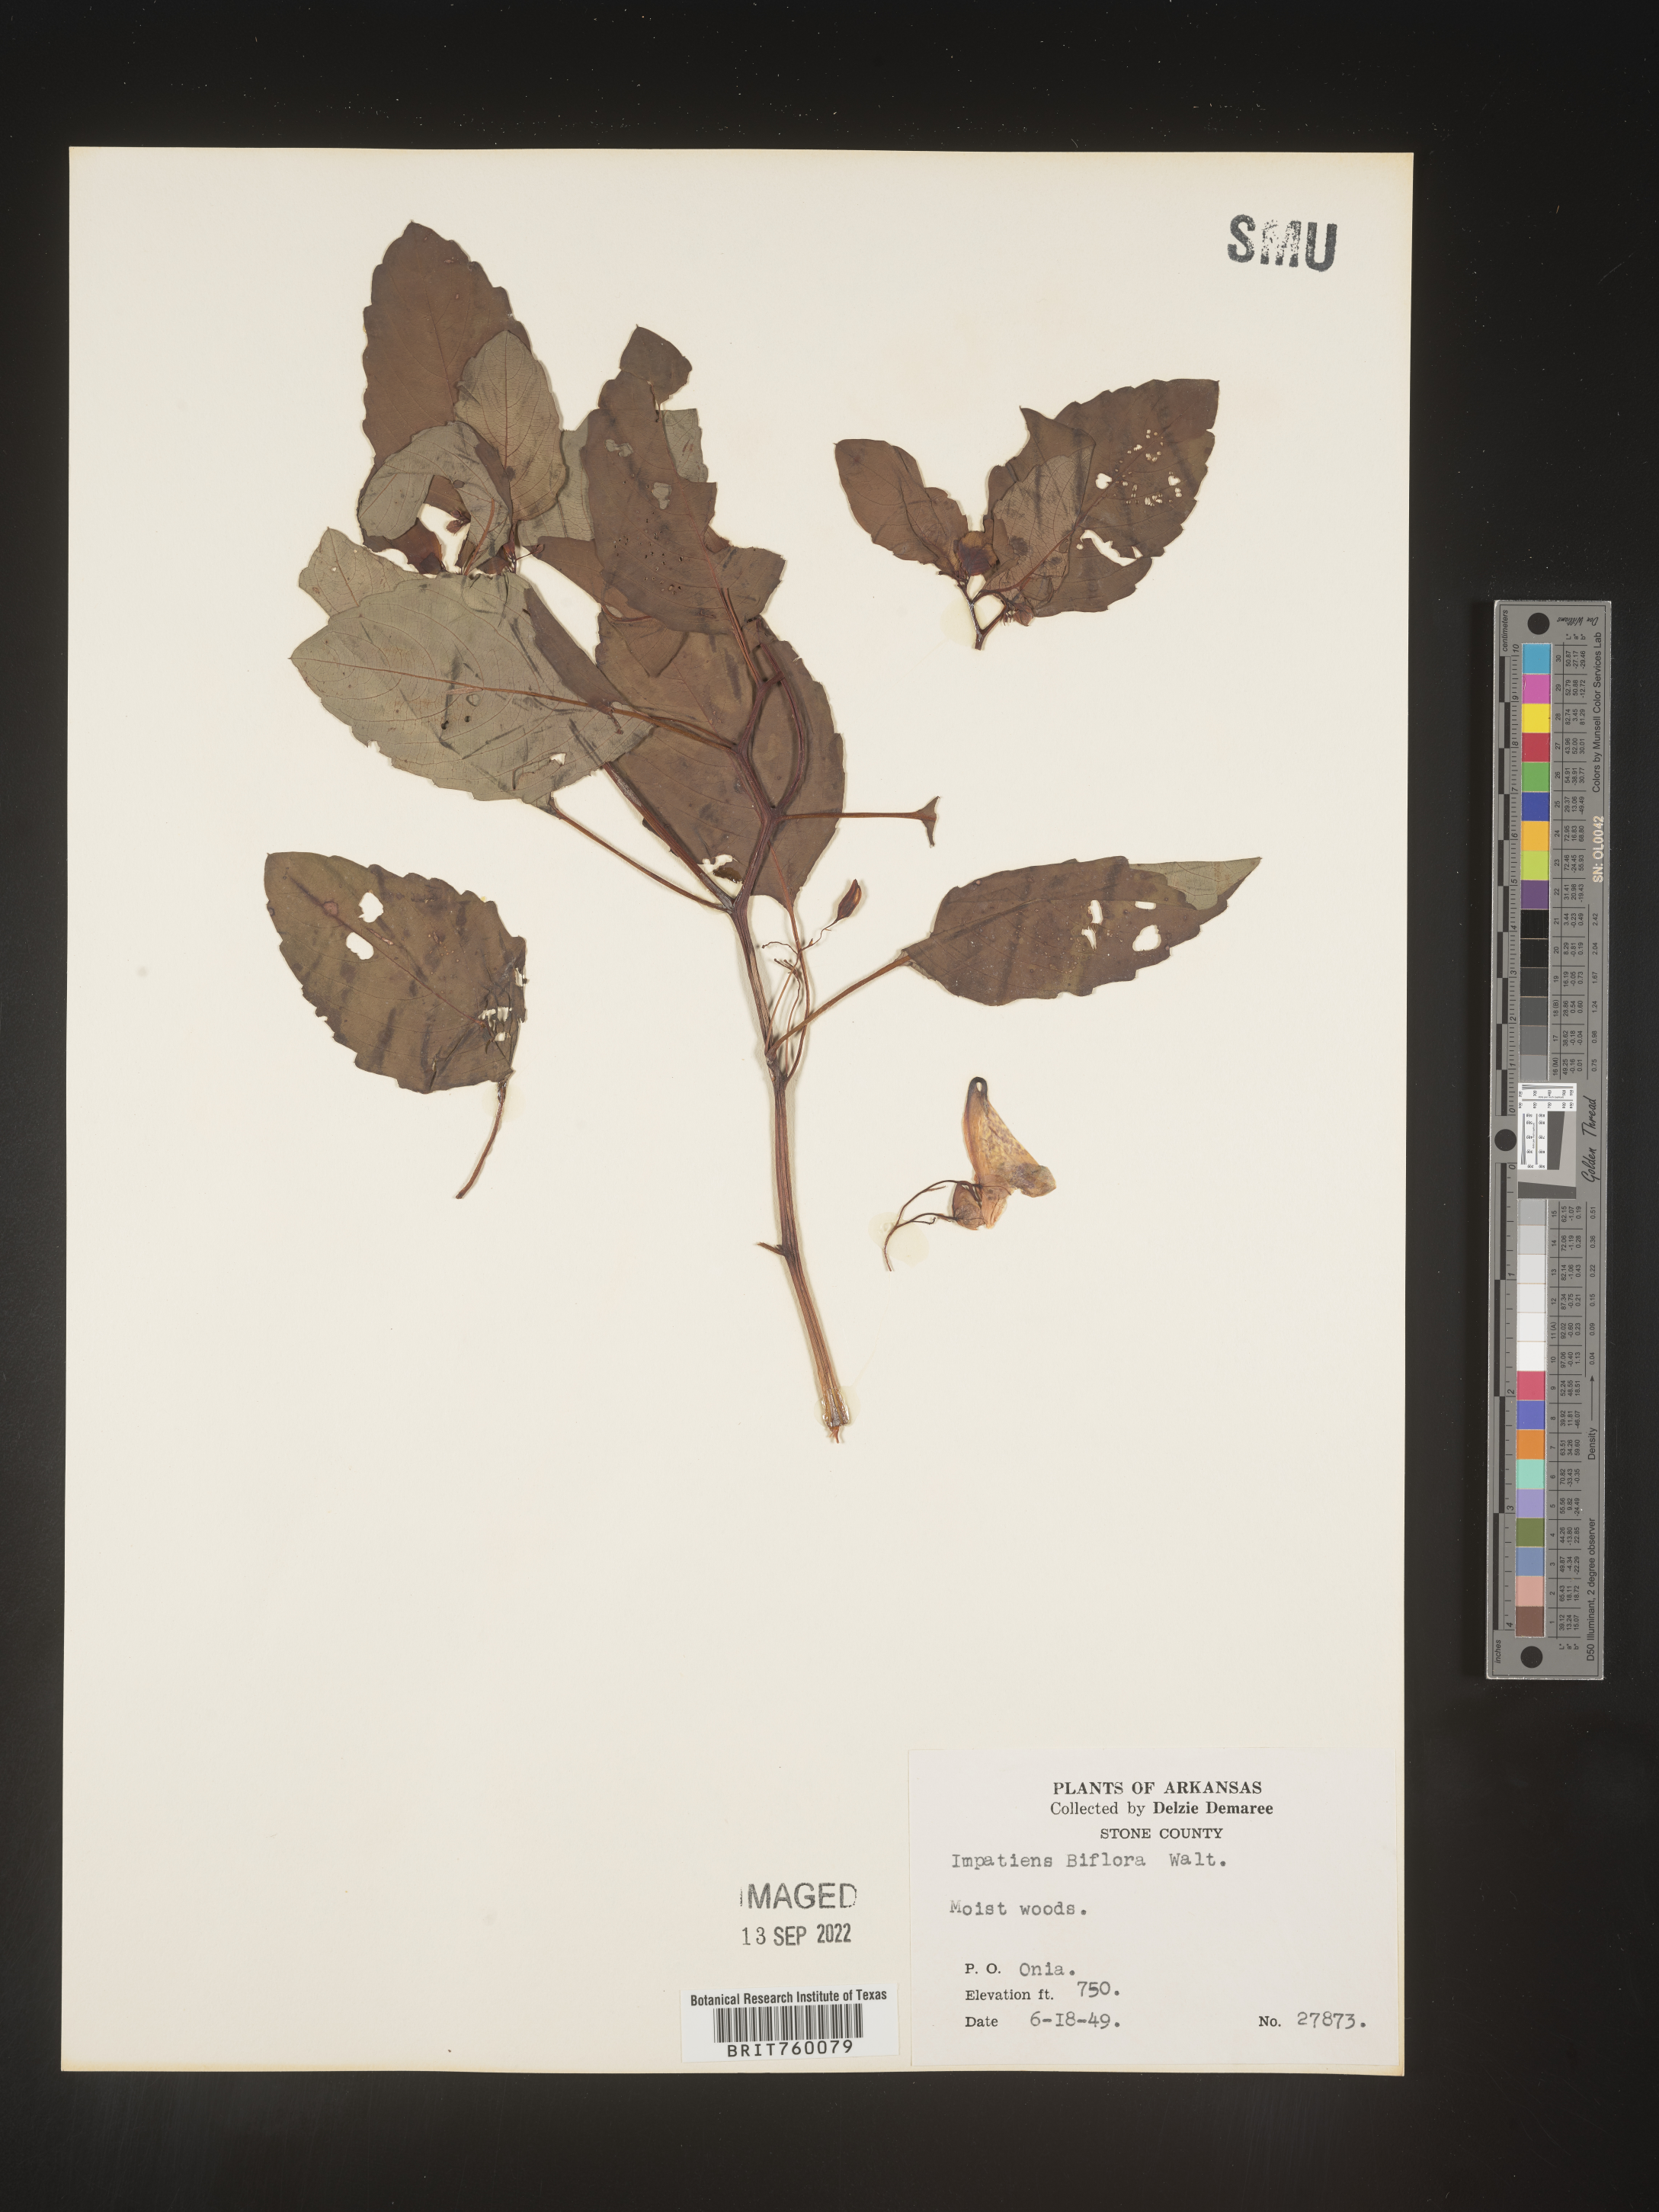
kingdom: Plantae
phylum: Tracheophyta
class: Magnoliopsida
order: Ericales
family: Balsaminaceae
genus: Impatiens
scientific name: Impatiens capensis
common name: Orange balsam
